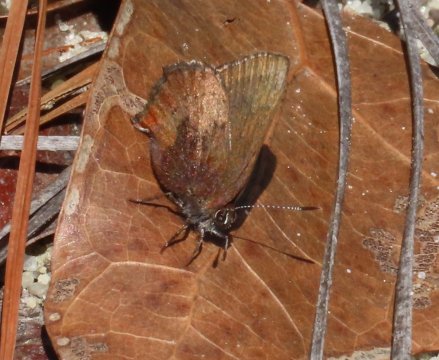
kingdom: Animalia
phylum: Arthropoda
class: Insecta
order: Lepidoptera
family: Lycaenidae
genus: Incisalia
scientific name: Incisalia irioides
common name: Brown Elfin
